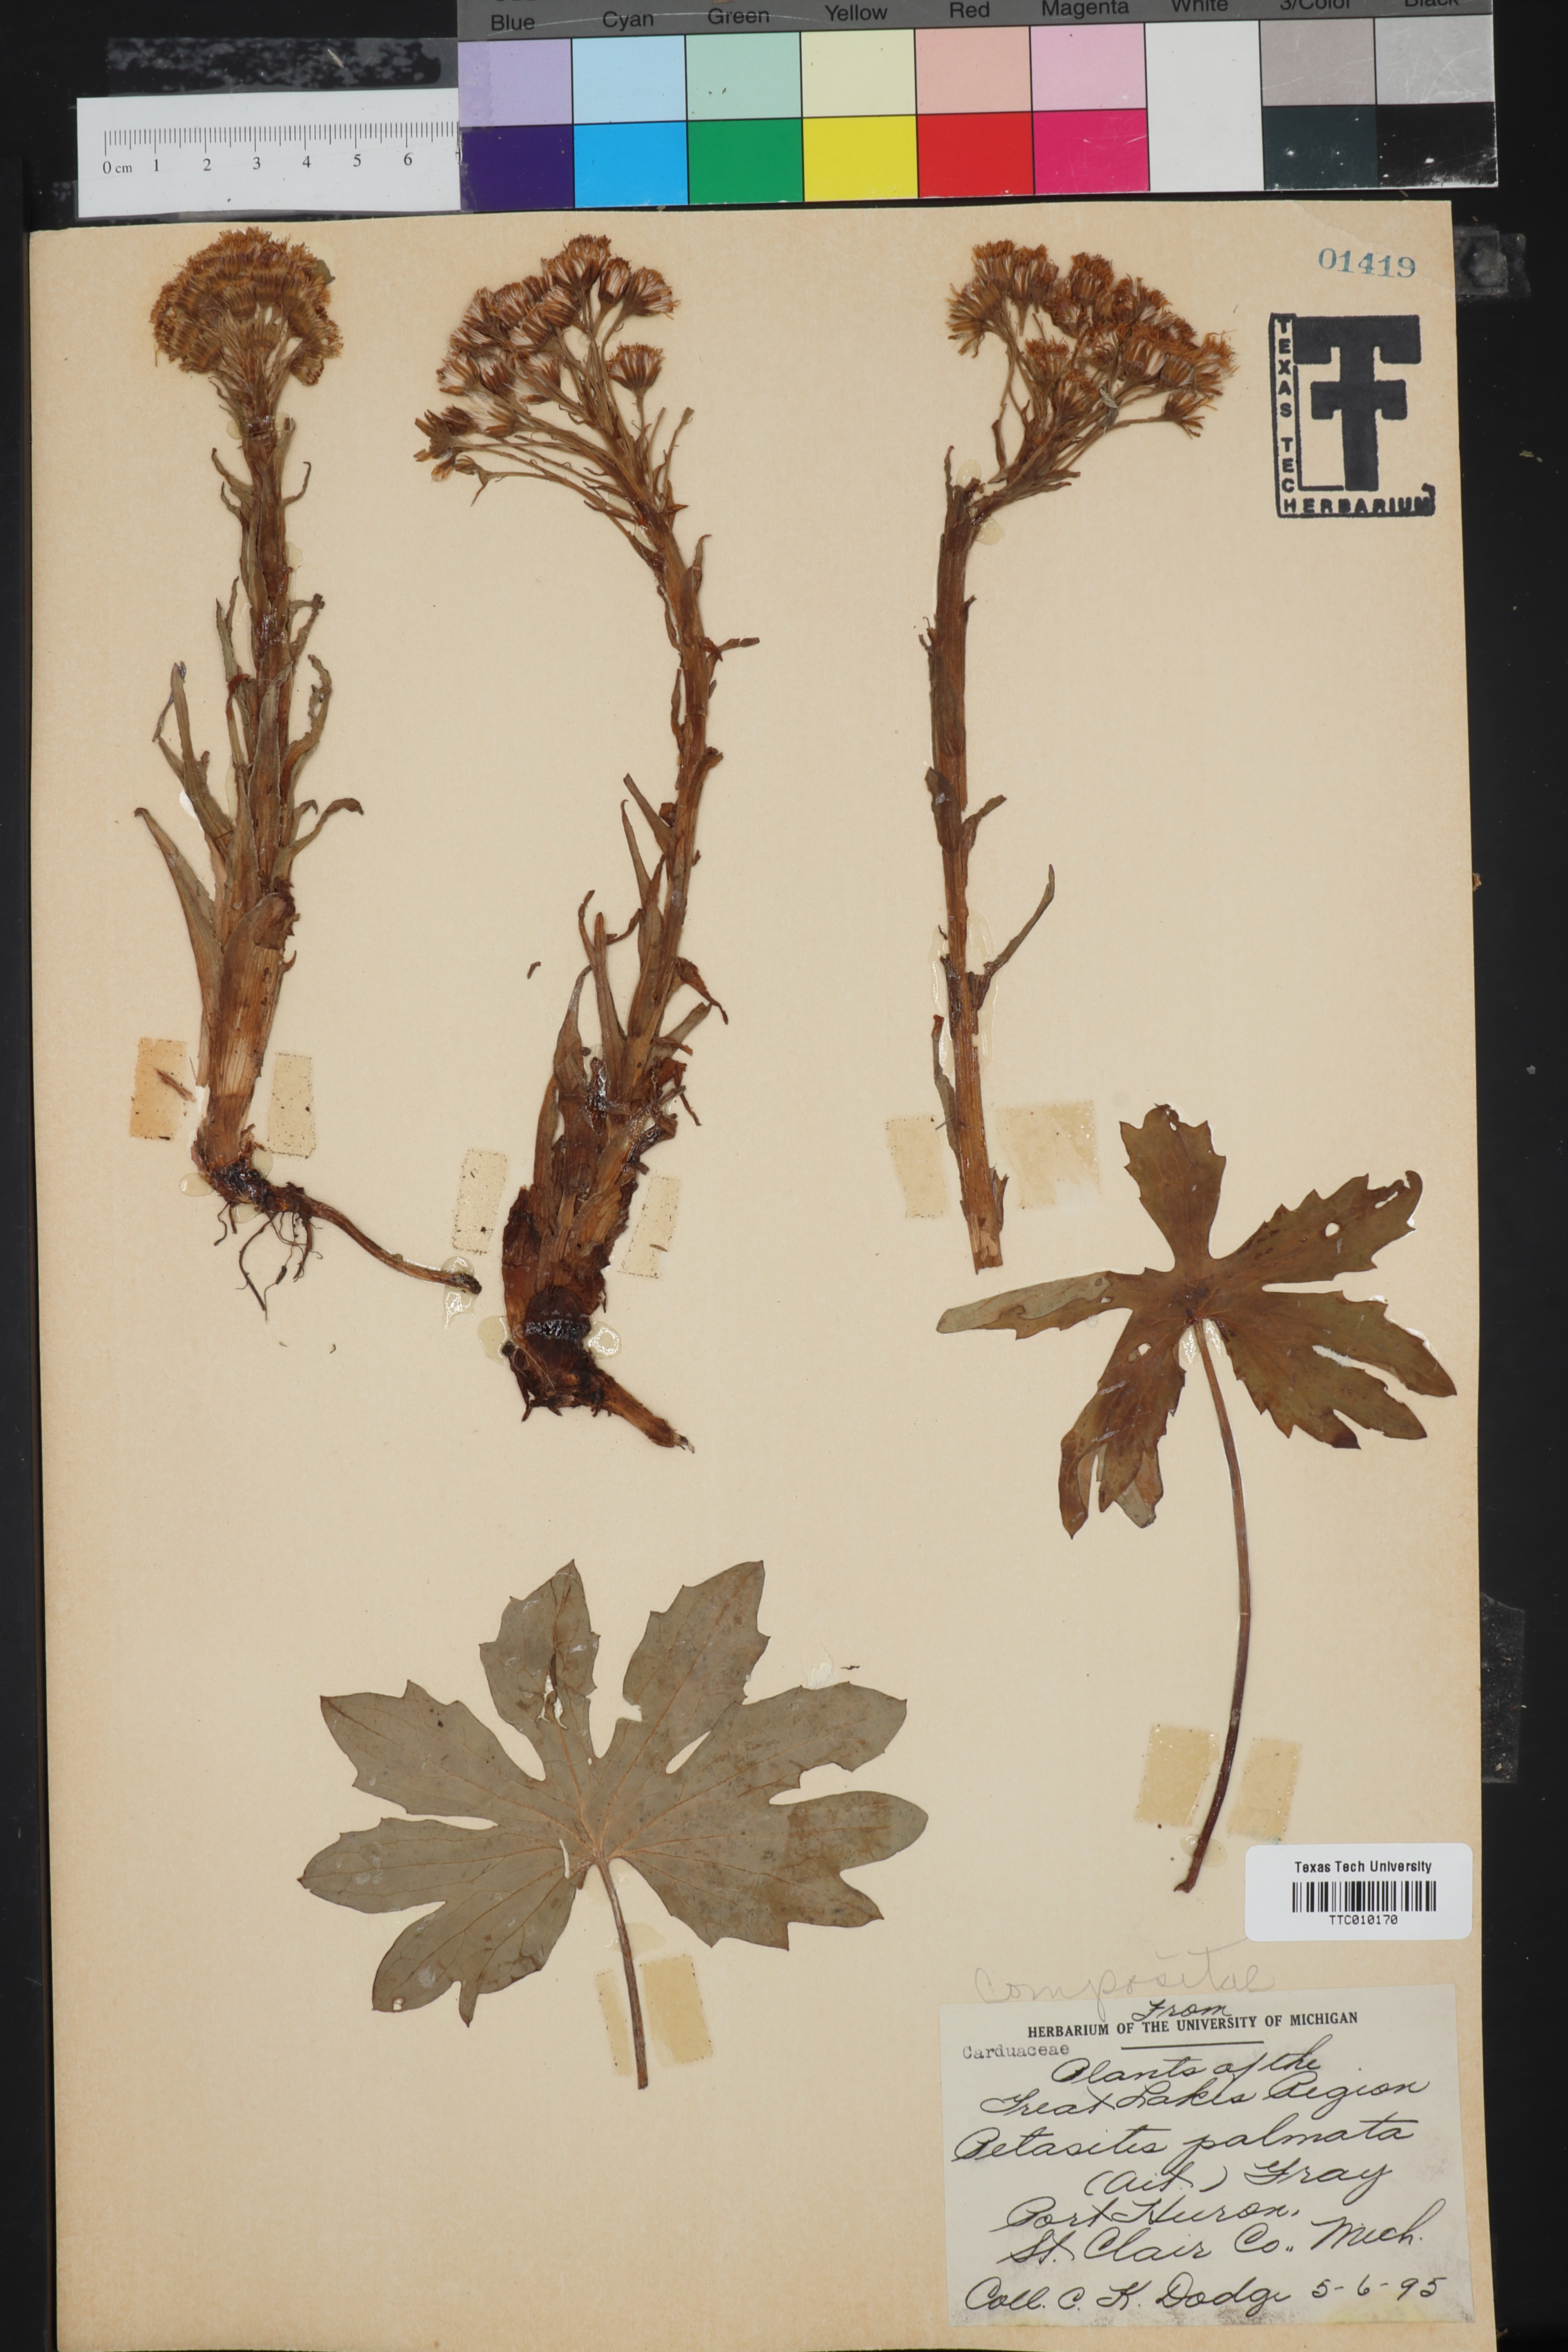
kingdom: Plantae
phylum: Tracheophyta
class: Magnoliopsida
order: Asterales
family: Asteraceae
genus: Petasites
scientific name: Petasites frigidus
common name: Arctic butterbur
